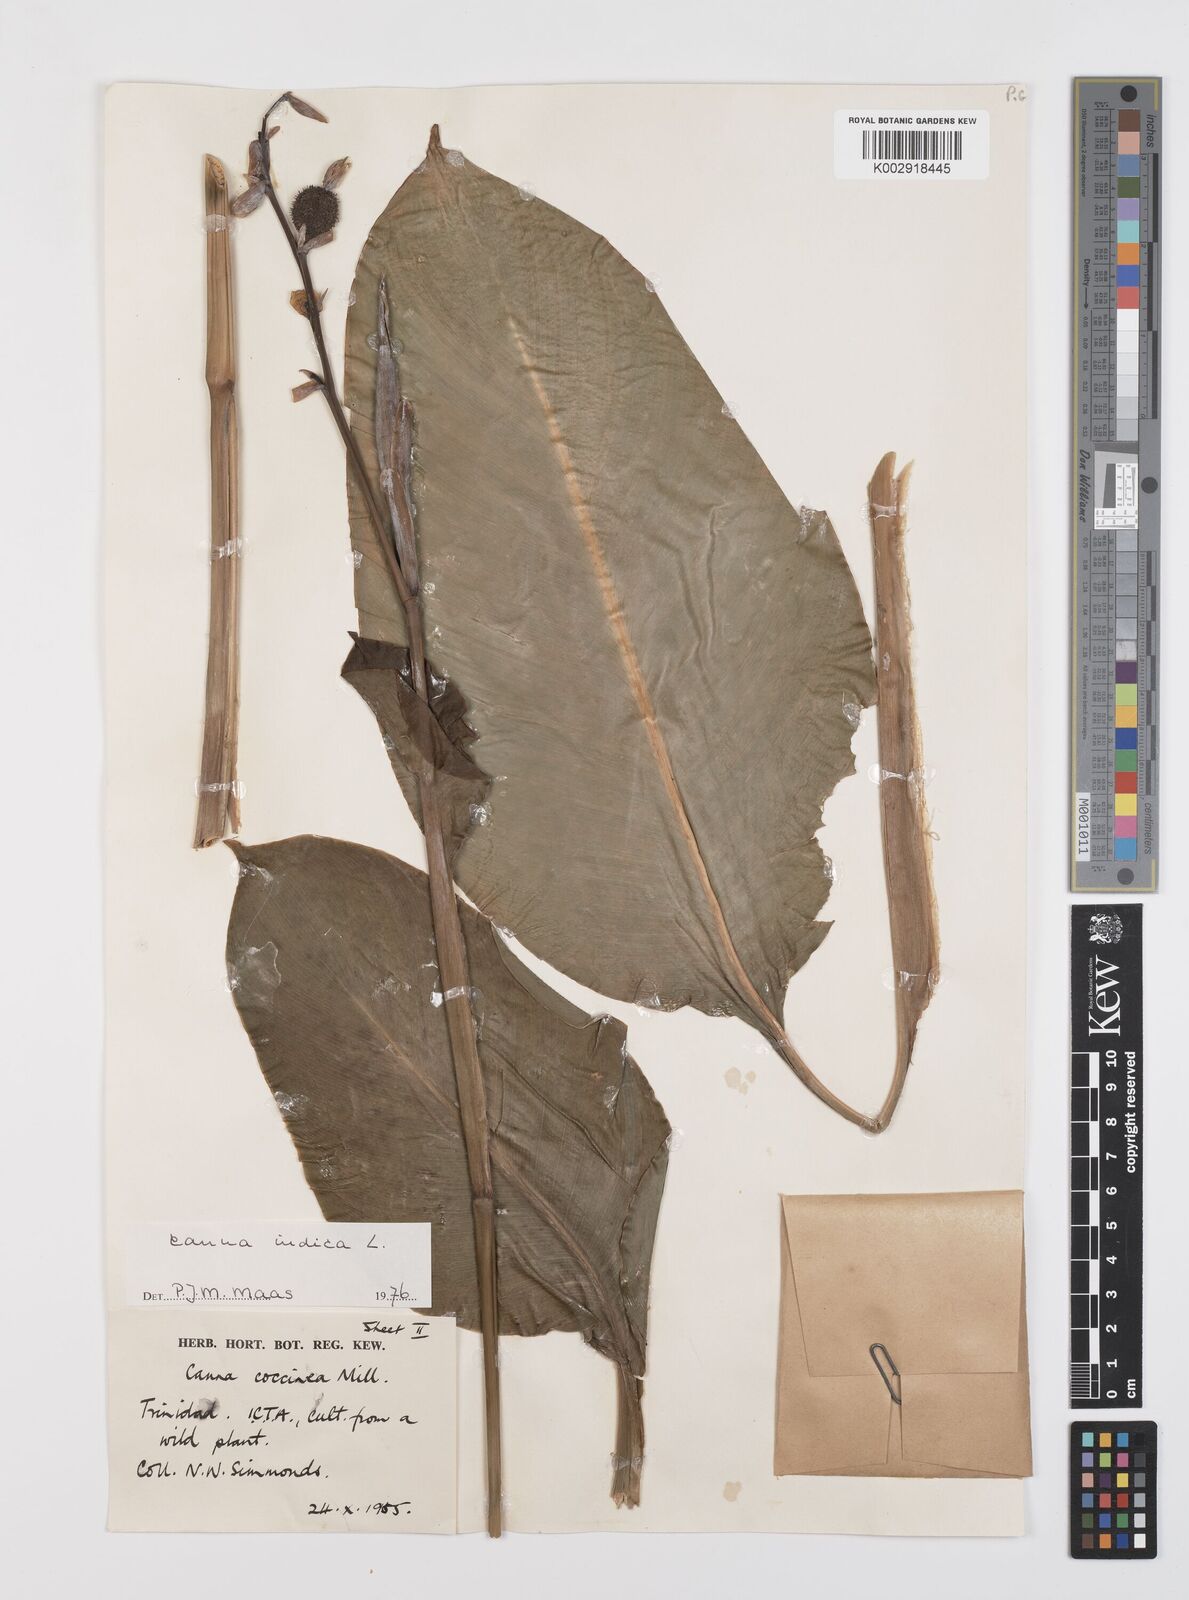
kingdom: Plantae
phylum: Tracheophyta
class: Liliopsida
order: Zingiberales
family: Cannaceae
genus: Canna
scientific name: Canna indica
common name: Indian shot
